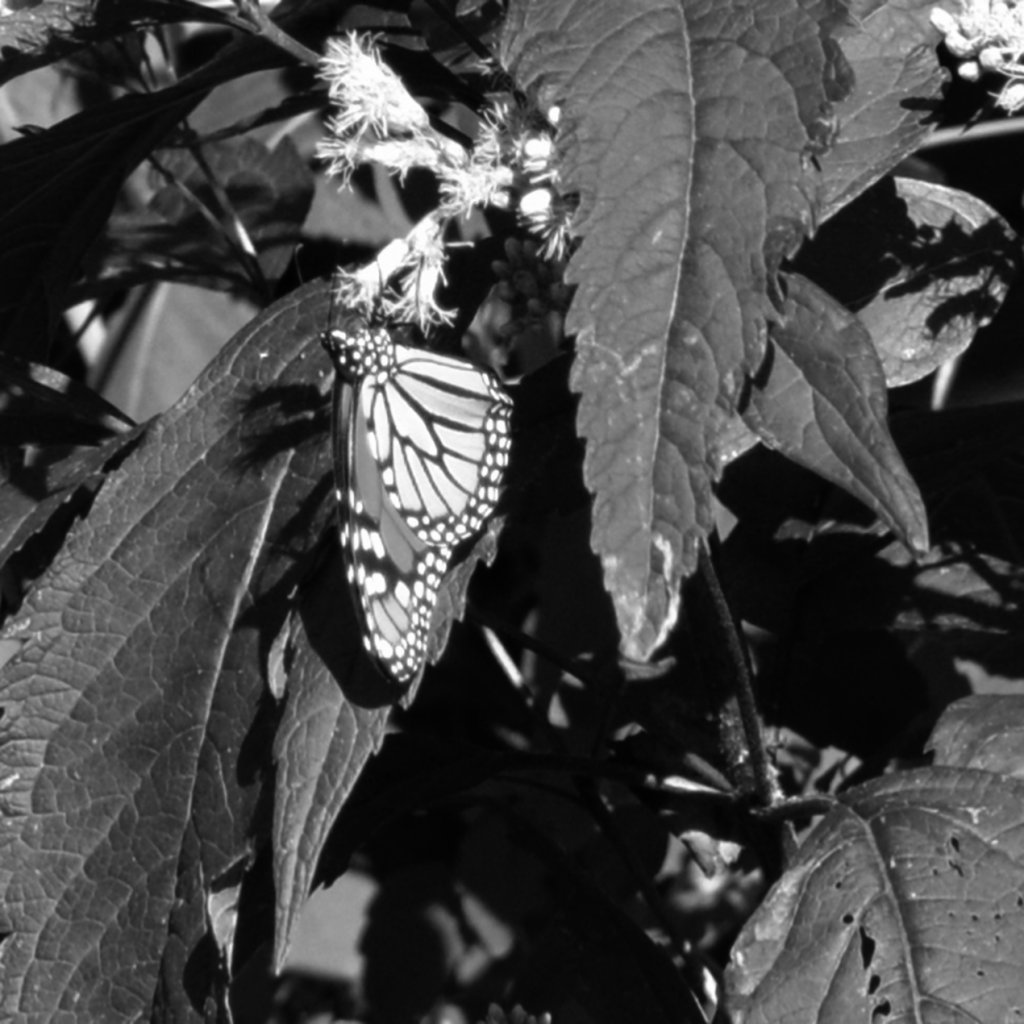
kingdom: Animalia
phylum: Arthropoda
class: Insecta
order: Lepidoptera
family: Nymphalidae
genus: Danaus
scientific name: Danaus plexippus
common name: Monarch
